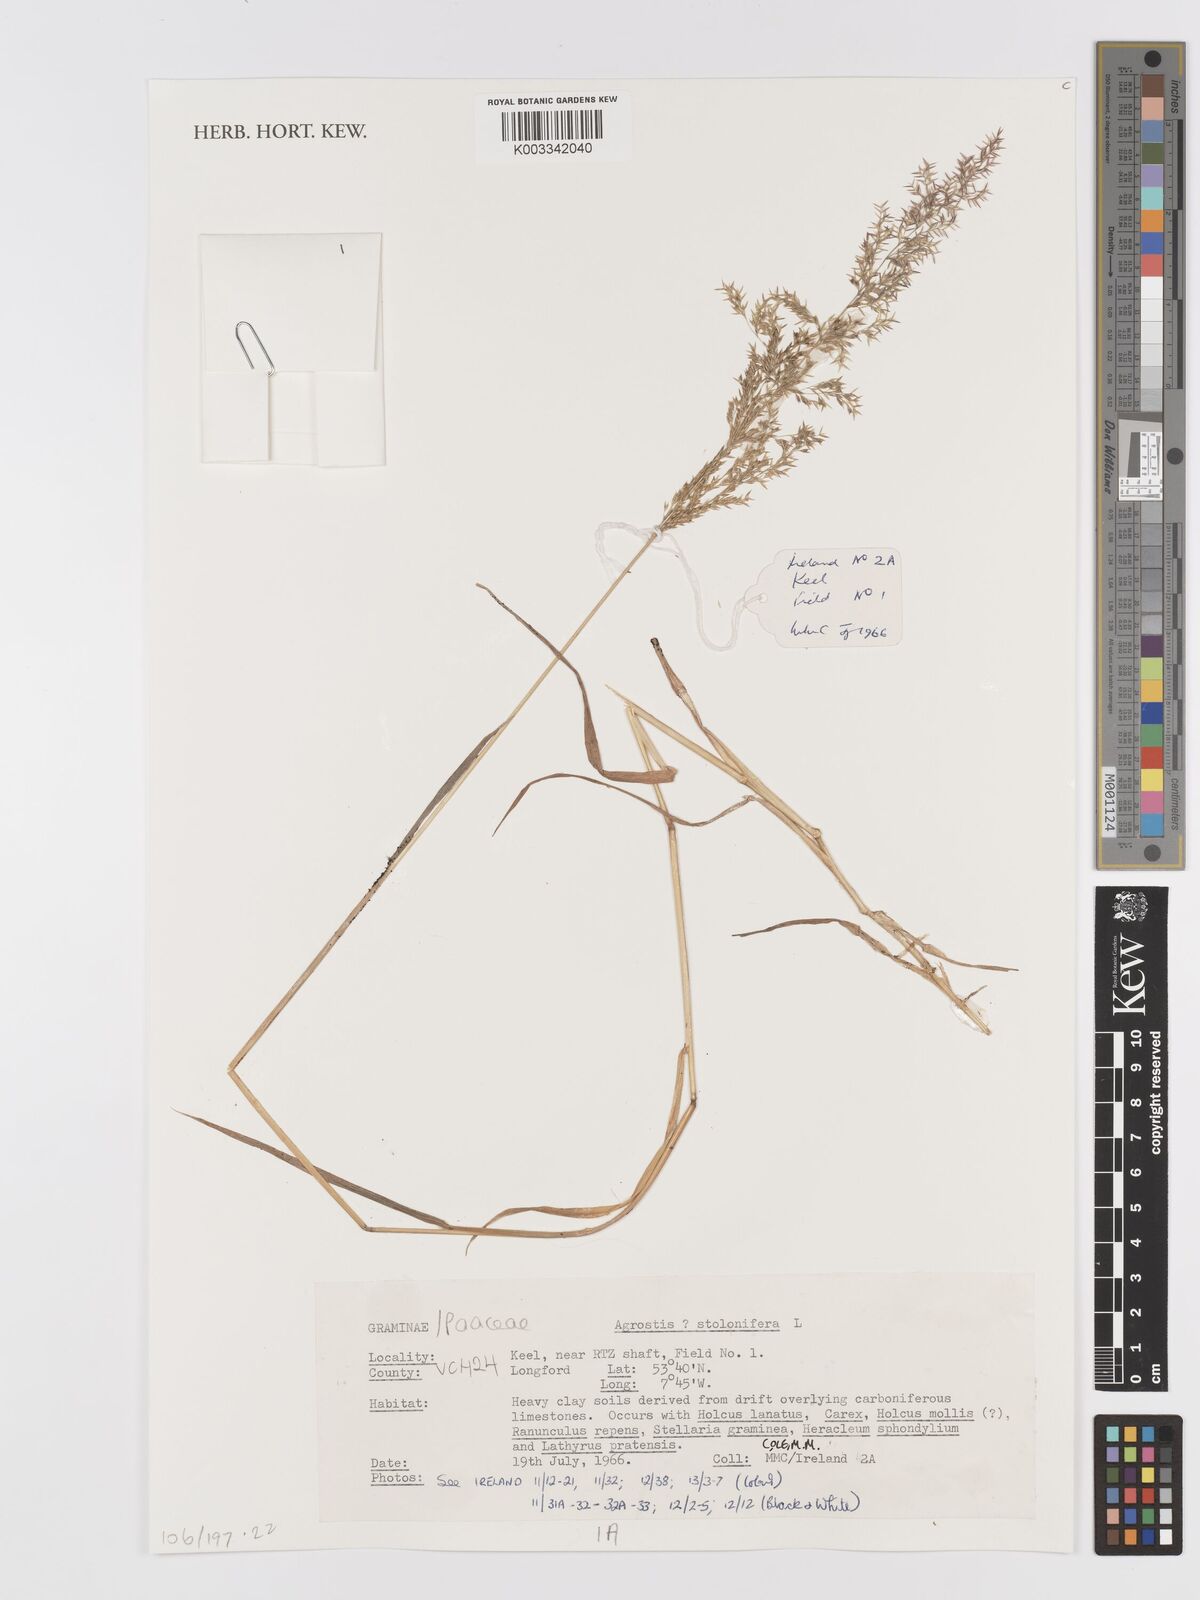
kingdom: Plantae
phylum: Tracheophyta
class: Liliopsida
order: Poales
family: Poaceae
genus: Agrostis
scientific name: Agrostis stolonifera
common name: Creeping bentgrass
